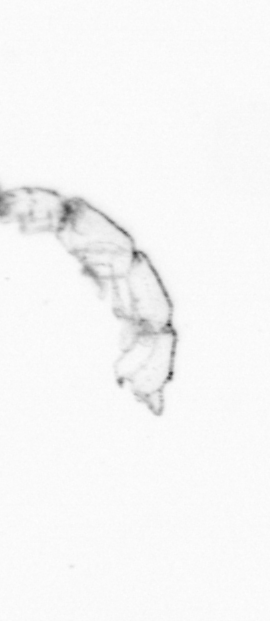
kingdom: Chromista
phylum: Ochrophyta
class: Bacillariophyceae
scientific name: Bacillariophyceae
